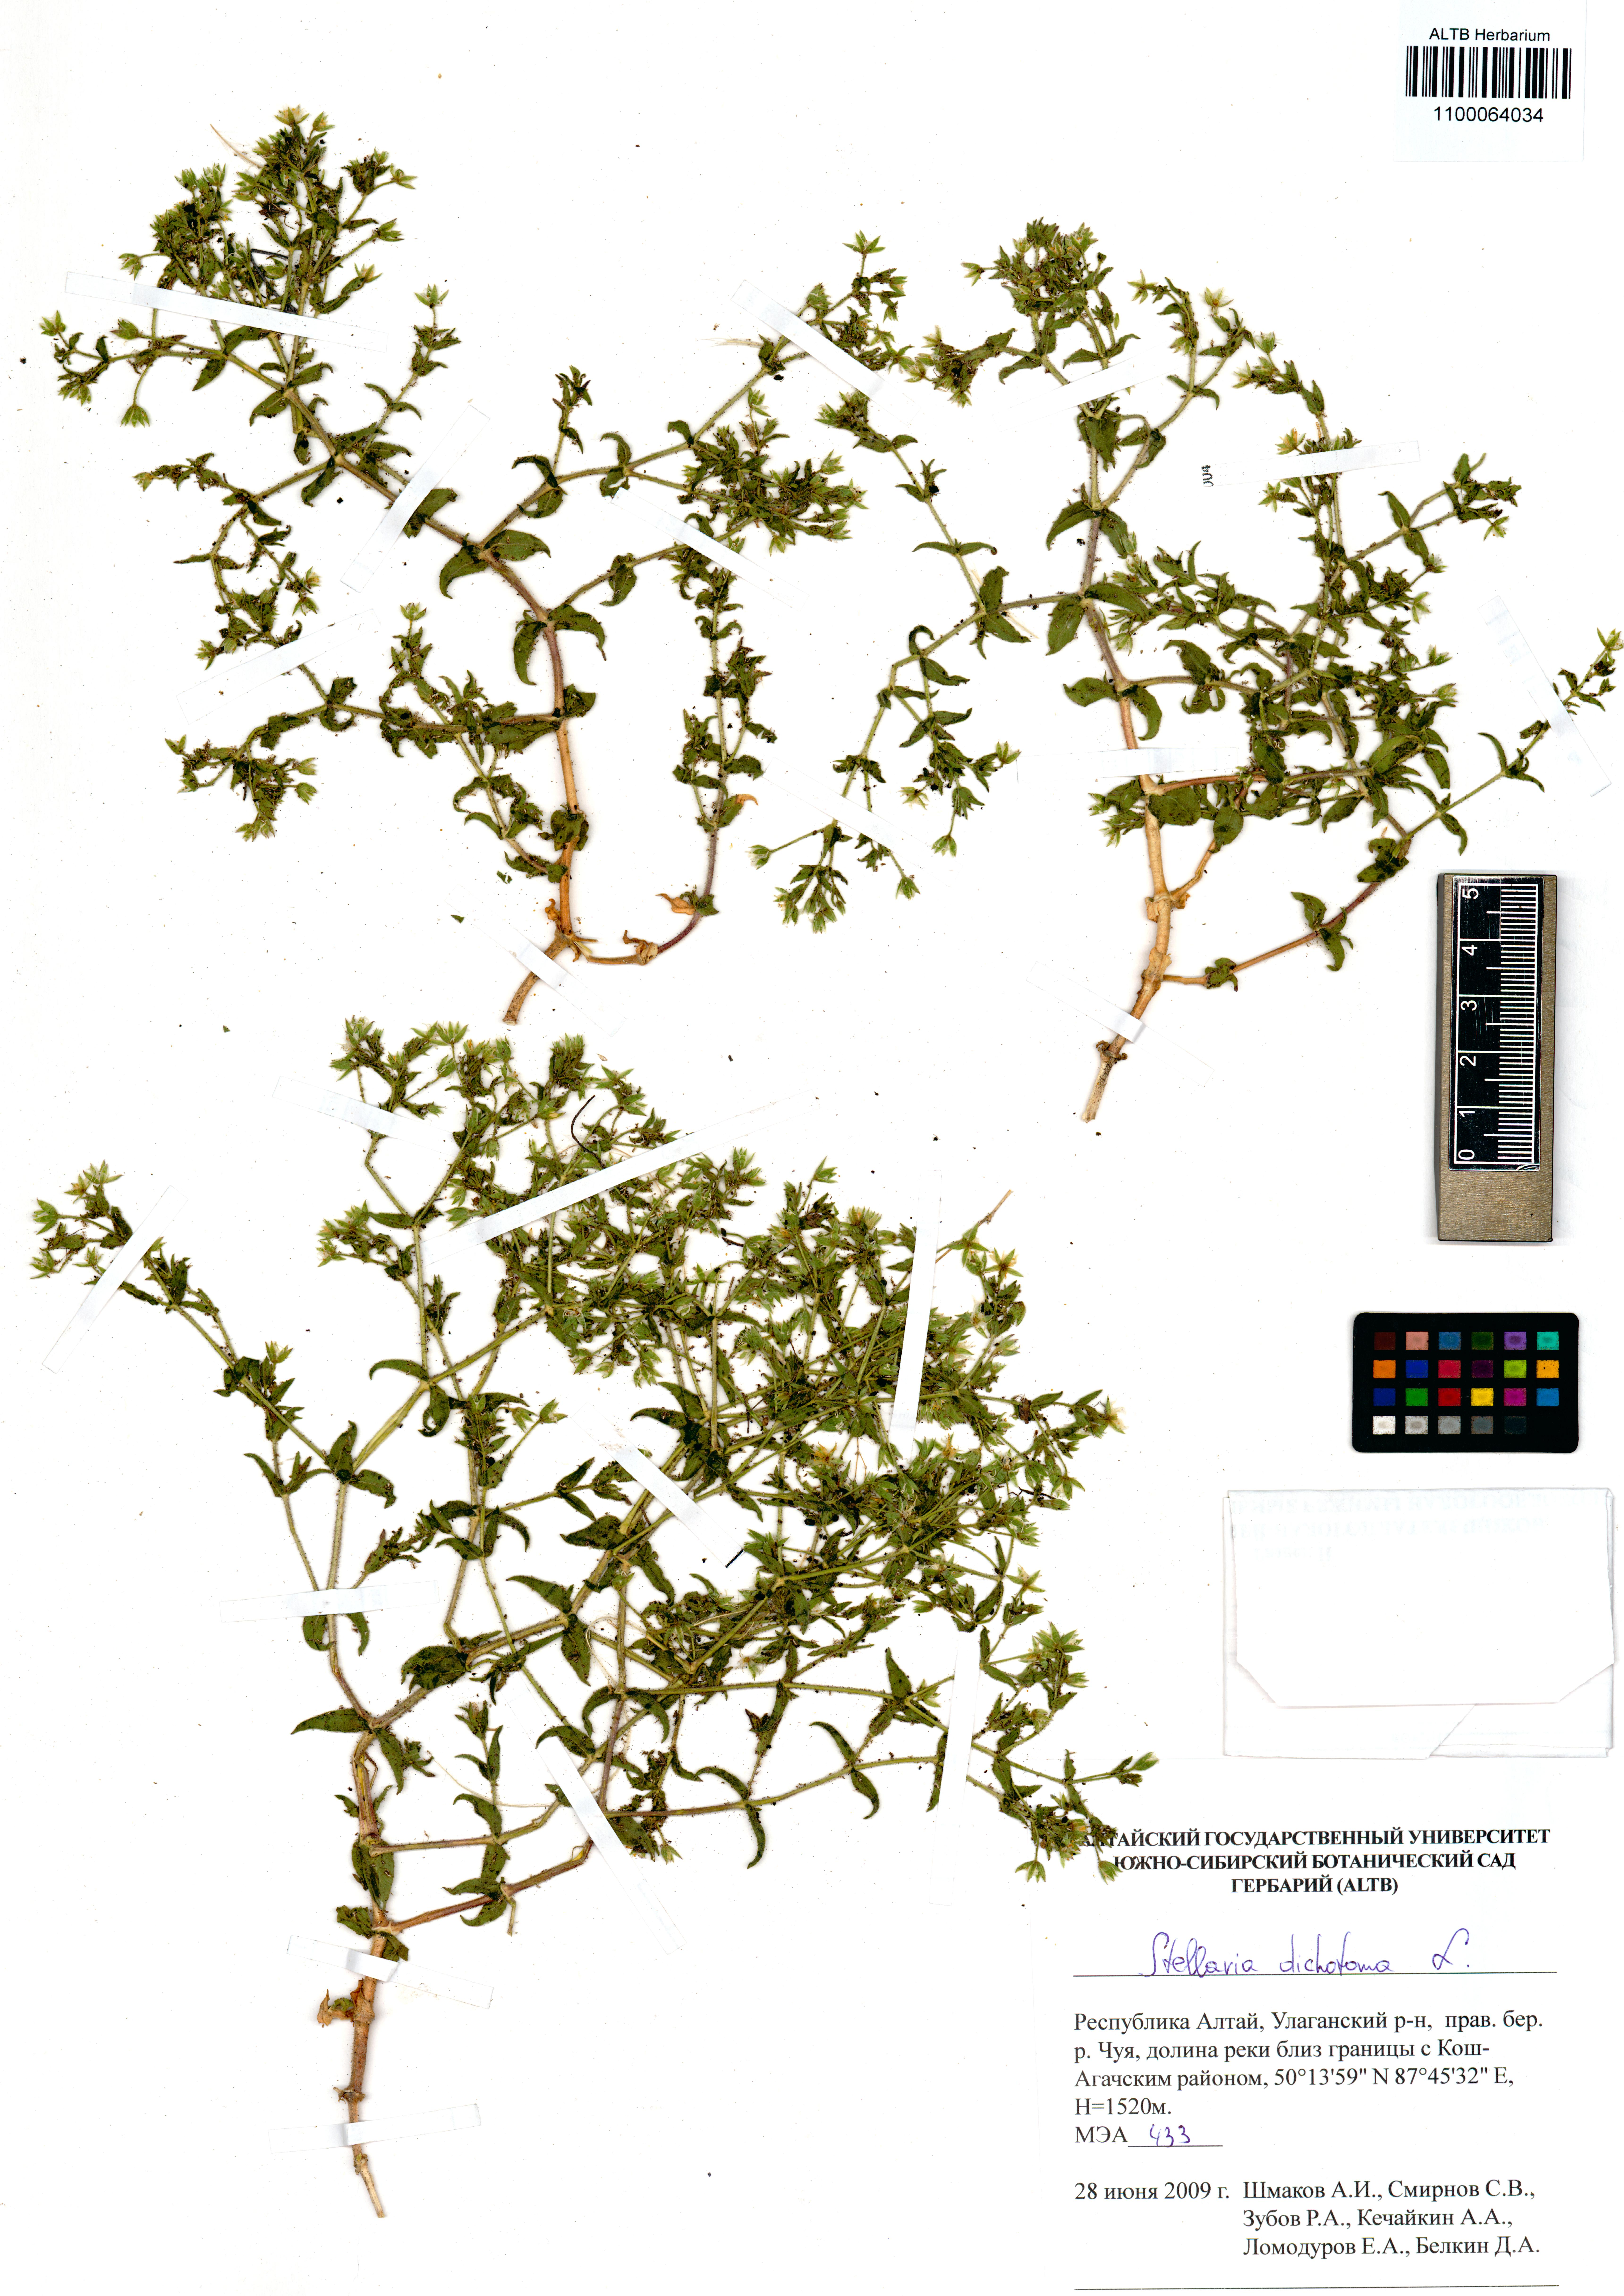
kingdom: Plantae
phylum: Tracheophyta
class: Magnoliopsida
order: Caryophyllales
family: Caryophyllaceae
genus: Mesostemma
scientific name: Mesostemma dichotomum
